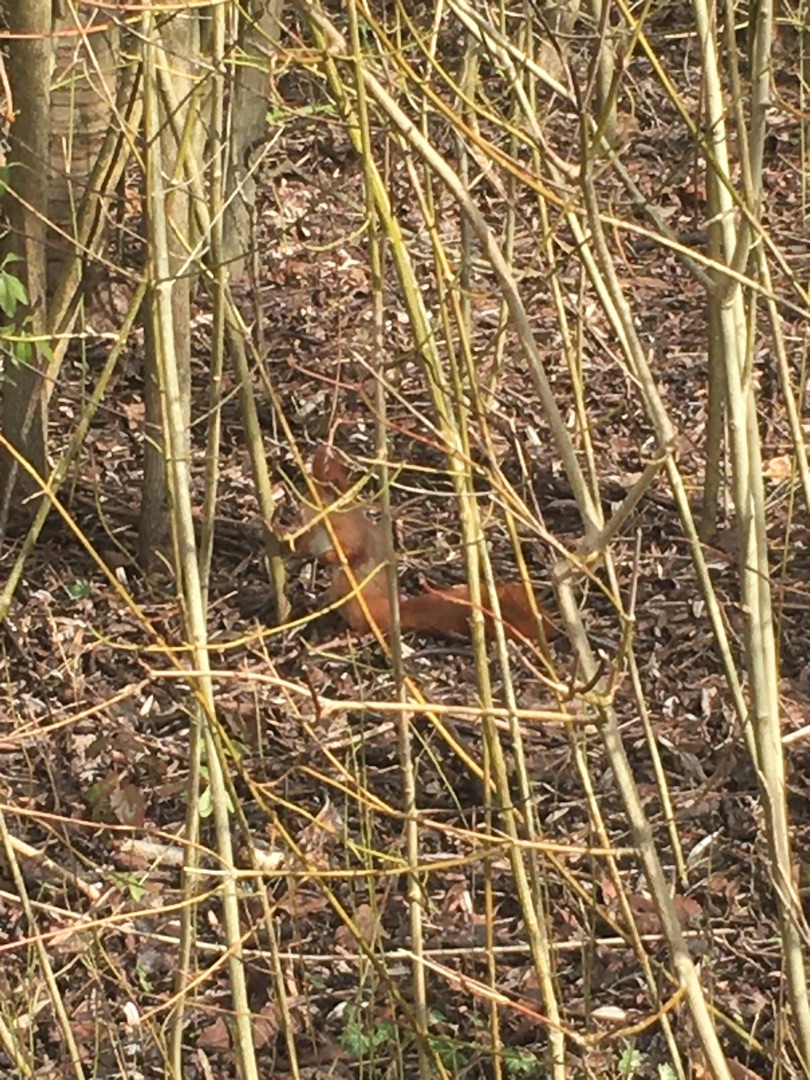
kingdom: Animalia
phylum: Chordata
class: Mammalia
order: Rodentia
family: Sciuridae
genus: Sciurus
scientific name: Sciurus vulgaris
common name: Egern
